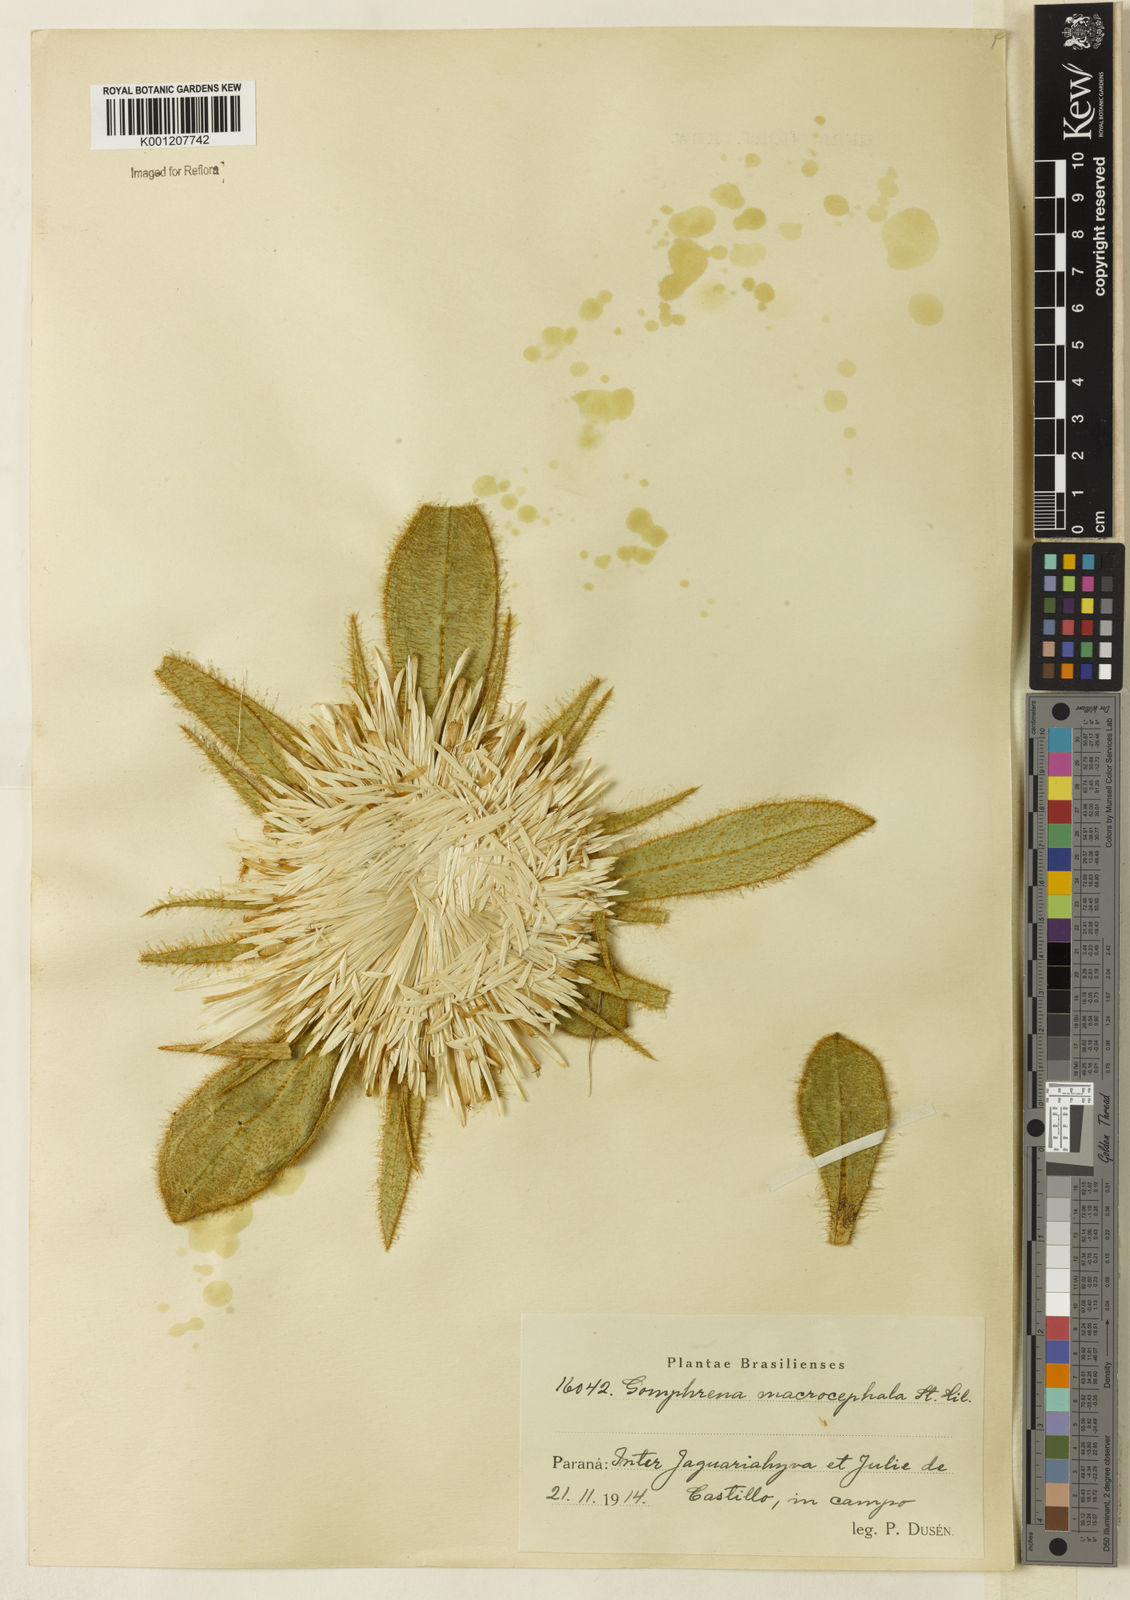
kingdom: Plantae
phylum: Tracheophyta
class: Magnoliopsida
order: Caryophyllales
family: Amaranthaceae
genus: Gomphrena
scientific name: Gomphrena macrocephala
